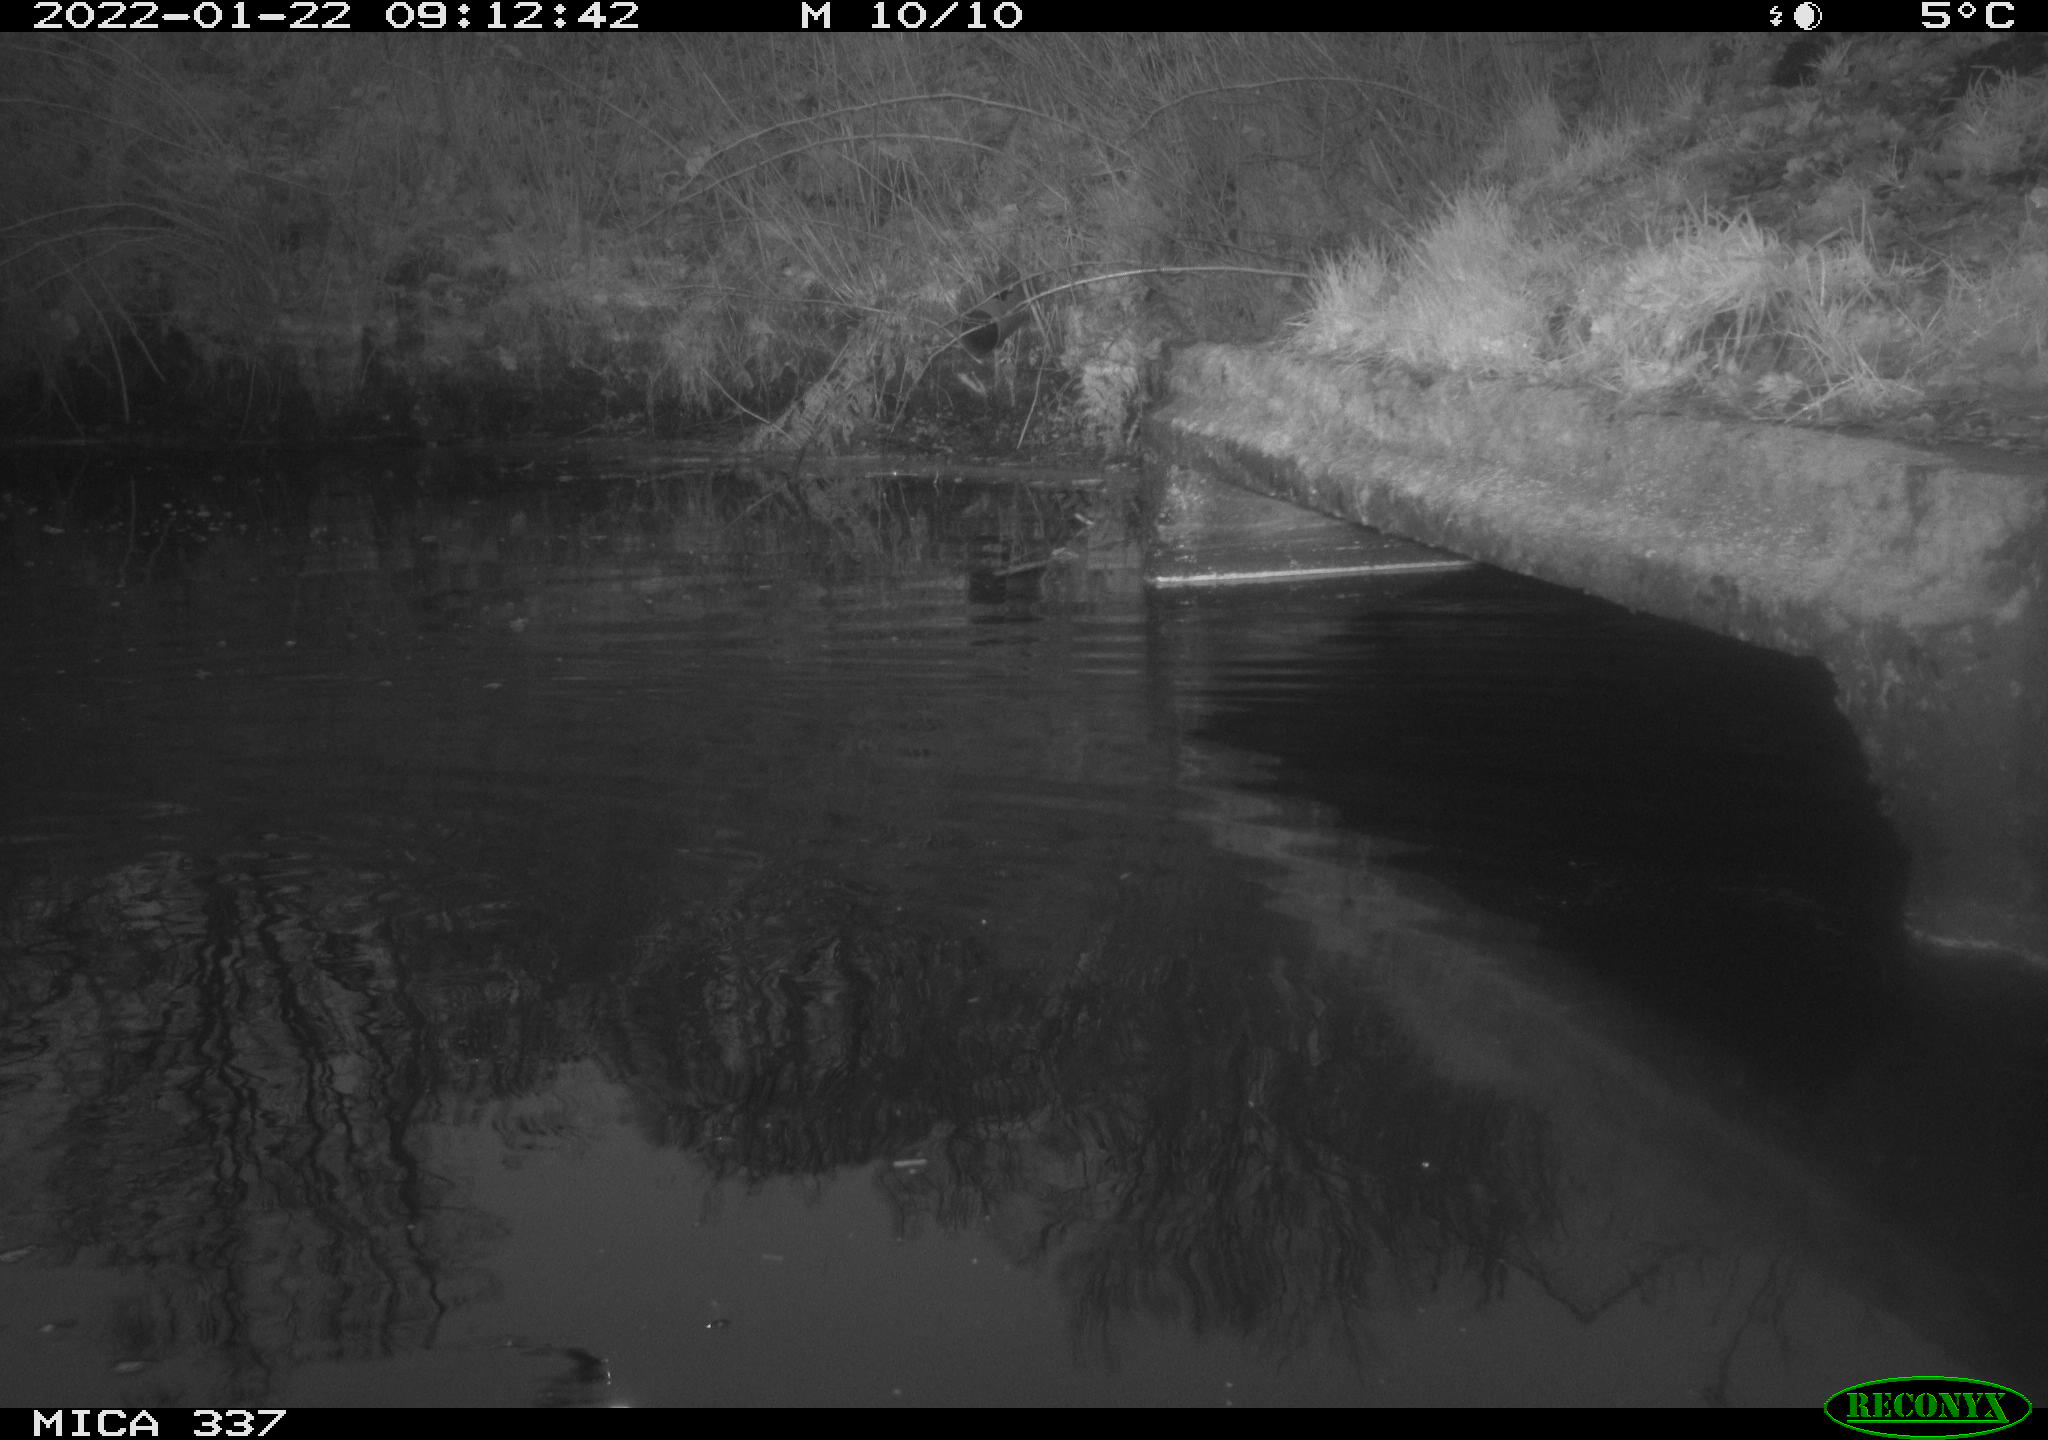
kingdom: Animalia
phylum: Chordata
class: Aves
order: Anseriformes
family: Anatidae
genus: Anas
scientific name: Anas platyrhynchos
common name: Mallard
